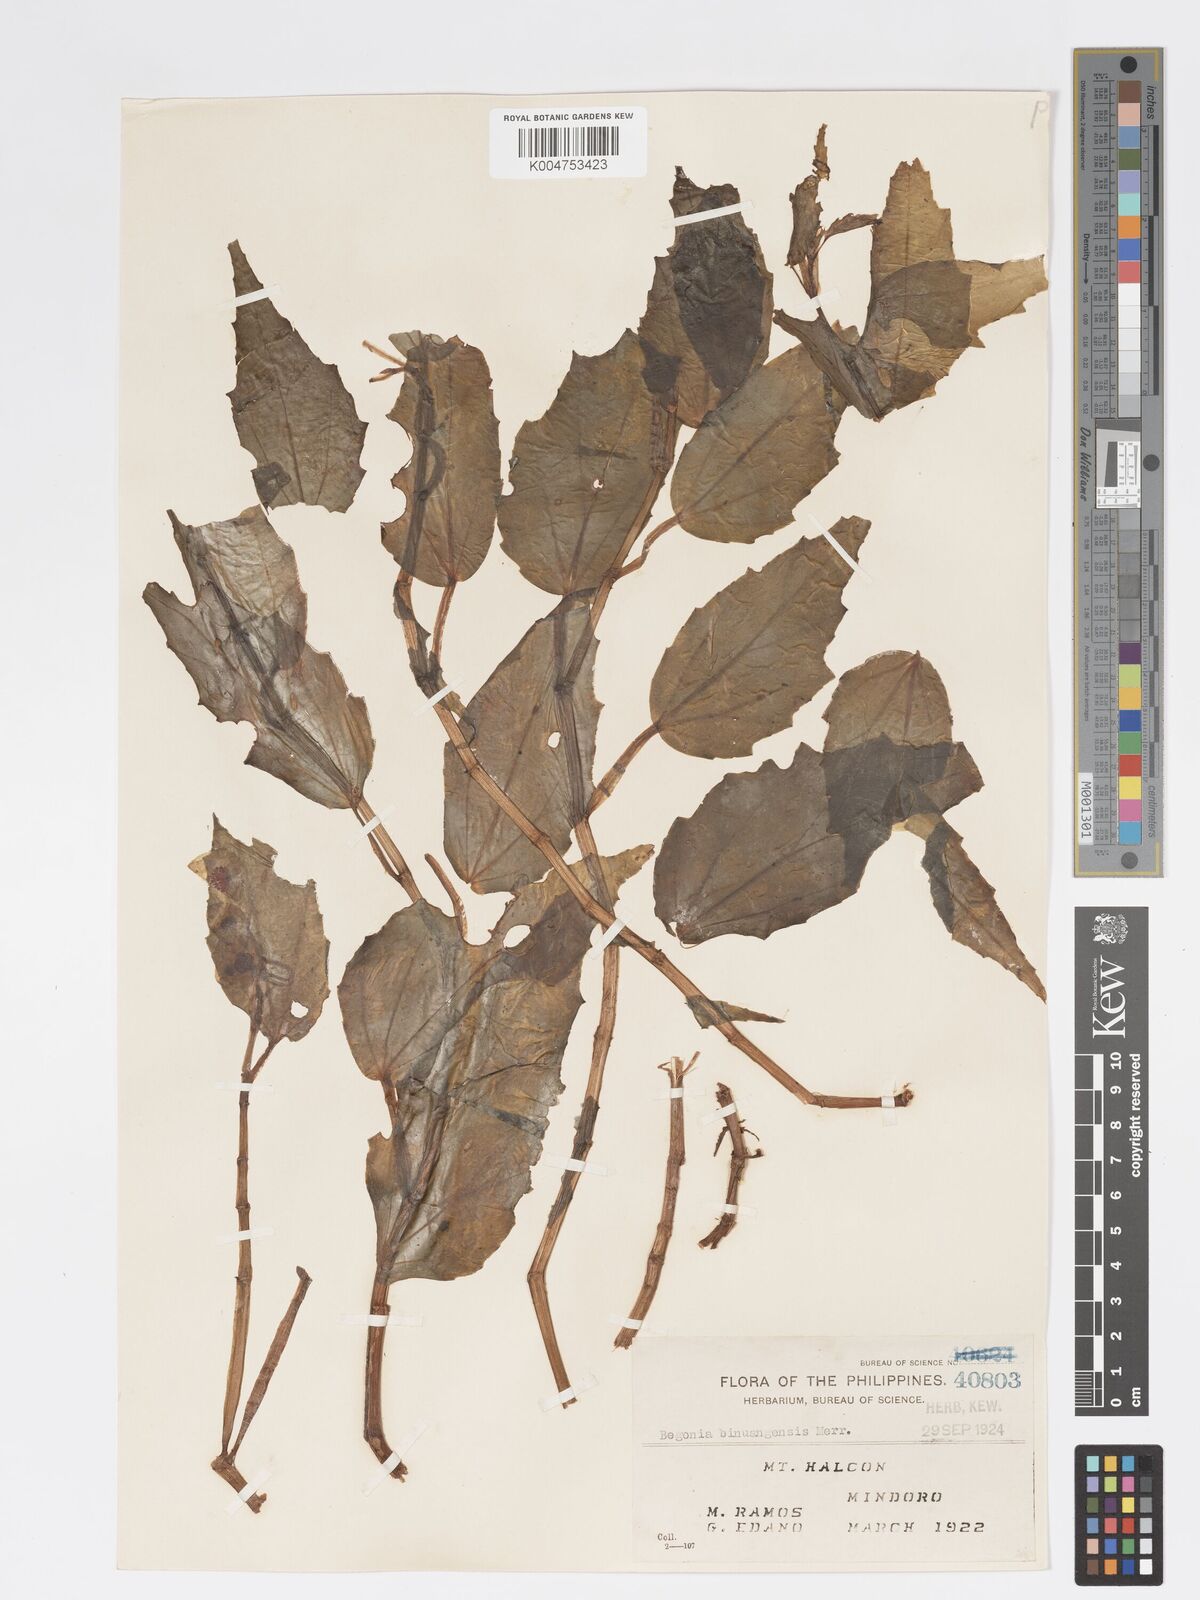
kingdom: Plantae
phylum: Tracheophyta
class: Magnoliopsida
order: Cucurbitales
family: Begoniaceae
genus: Begonia
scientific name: Begonia binuangensis
